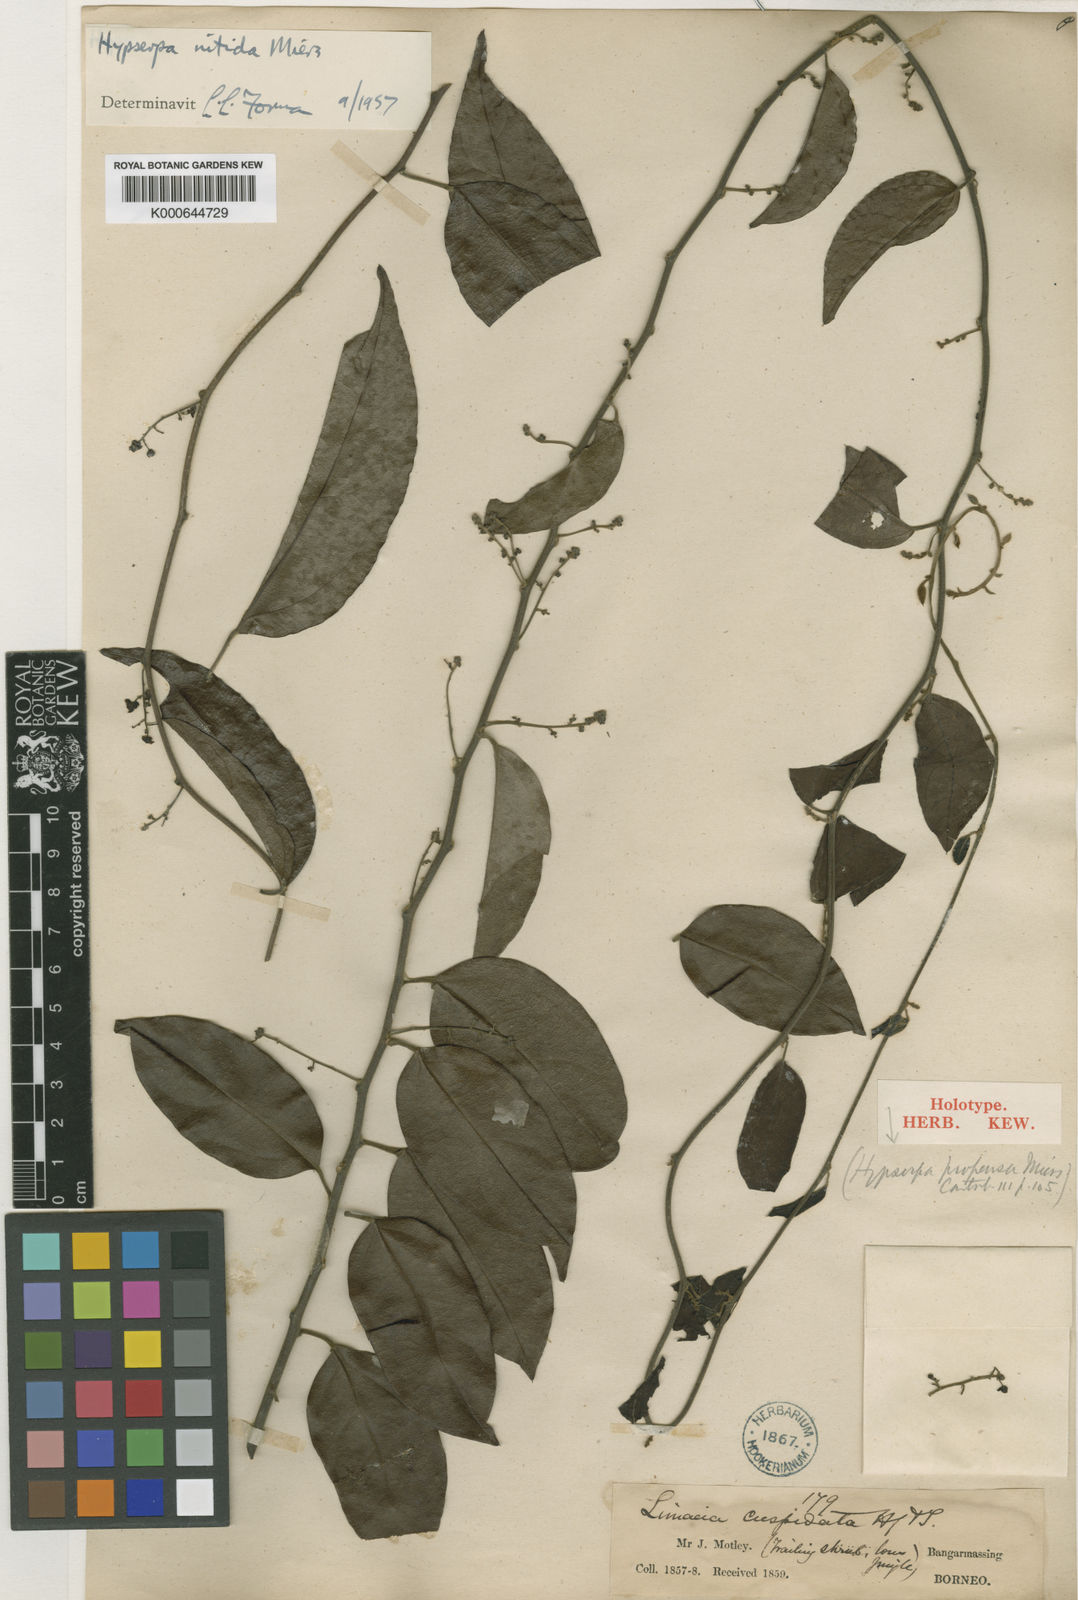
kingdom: Plantae
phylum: Tracheophyta
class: Magnoliopsida
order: Ranunculales
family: Menispermaceae
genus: Hypserpa
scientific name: Hypserpa
